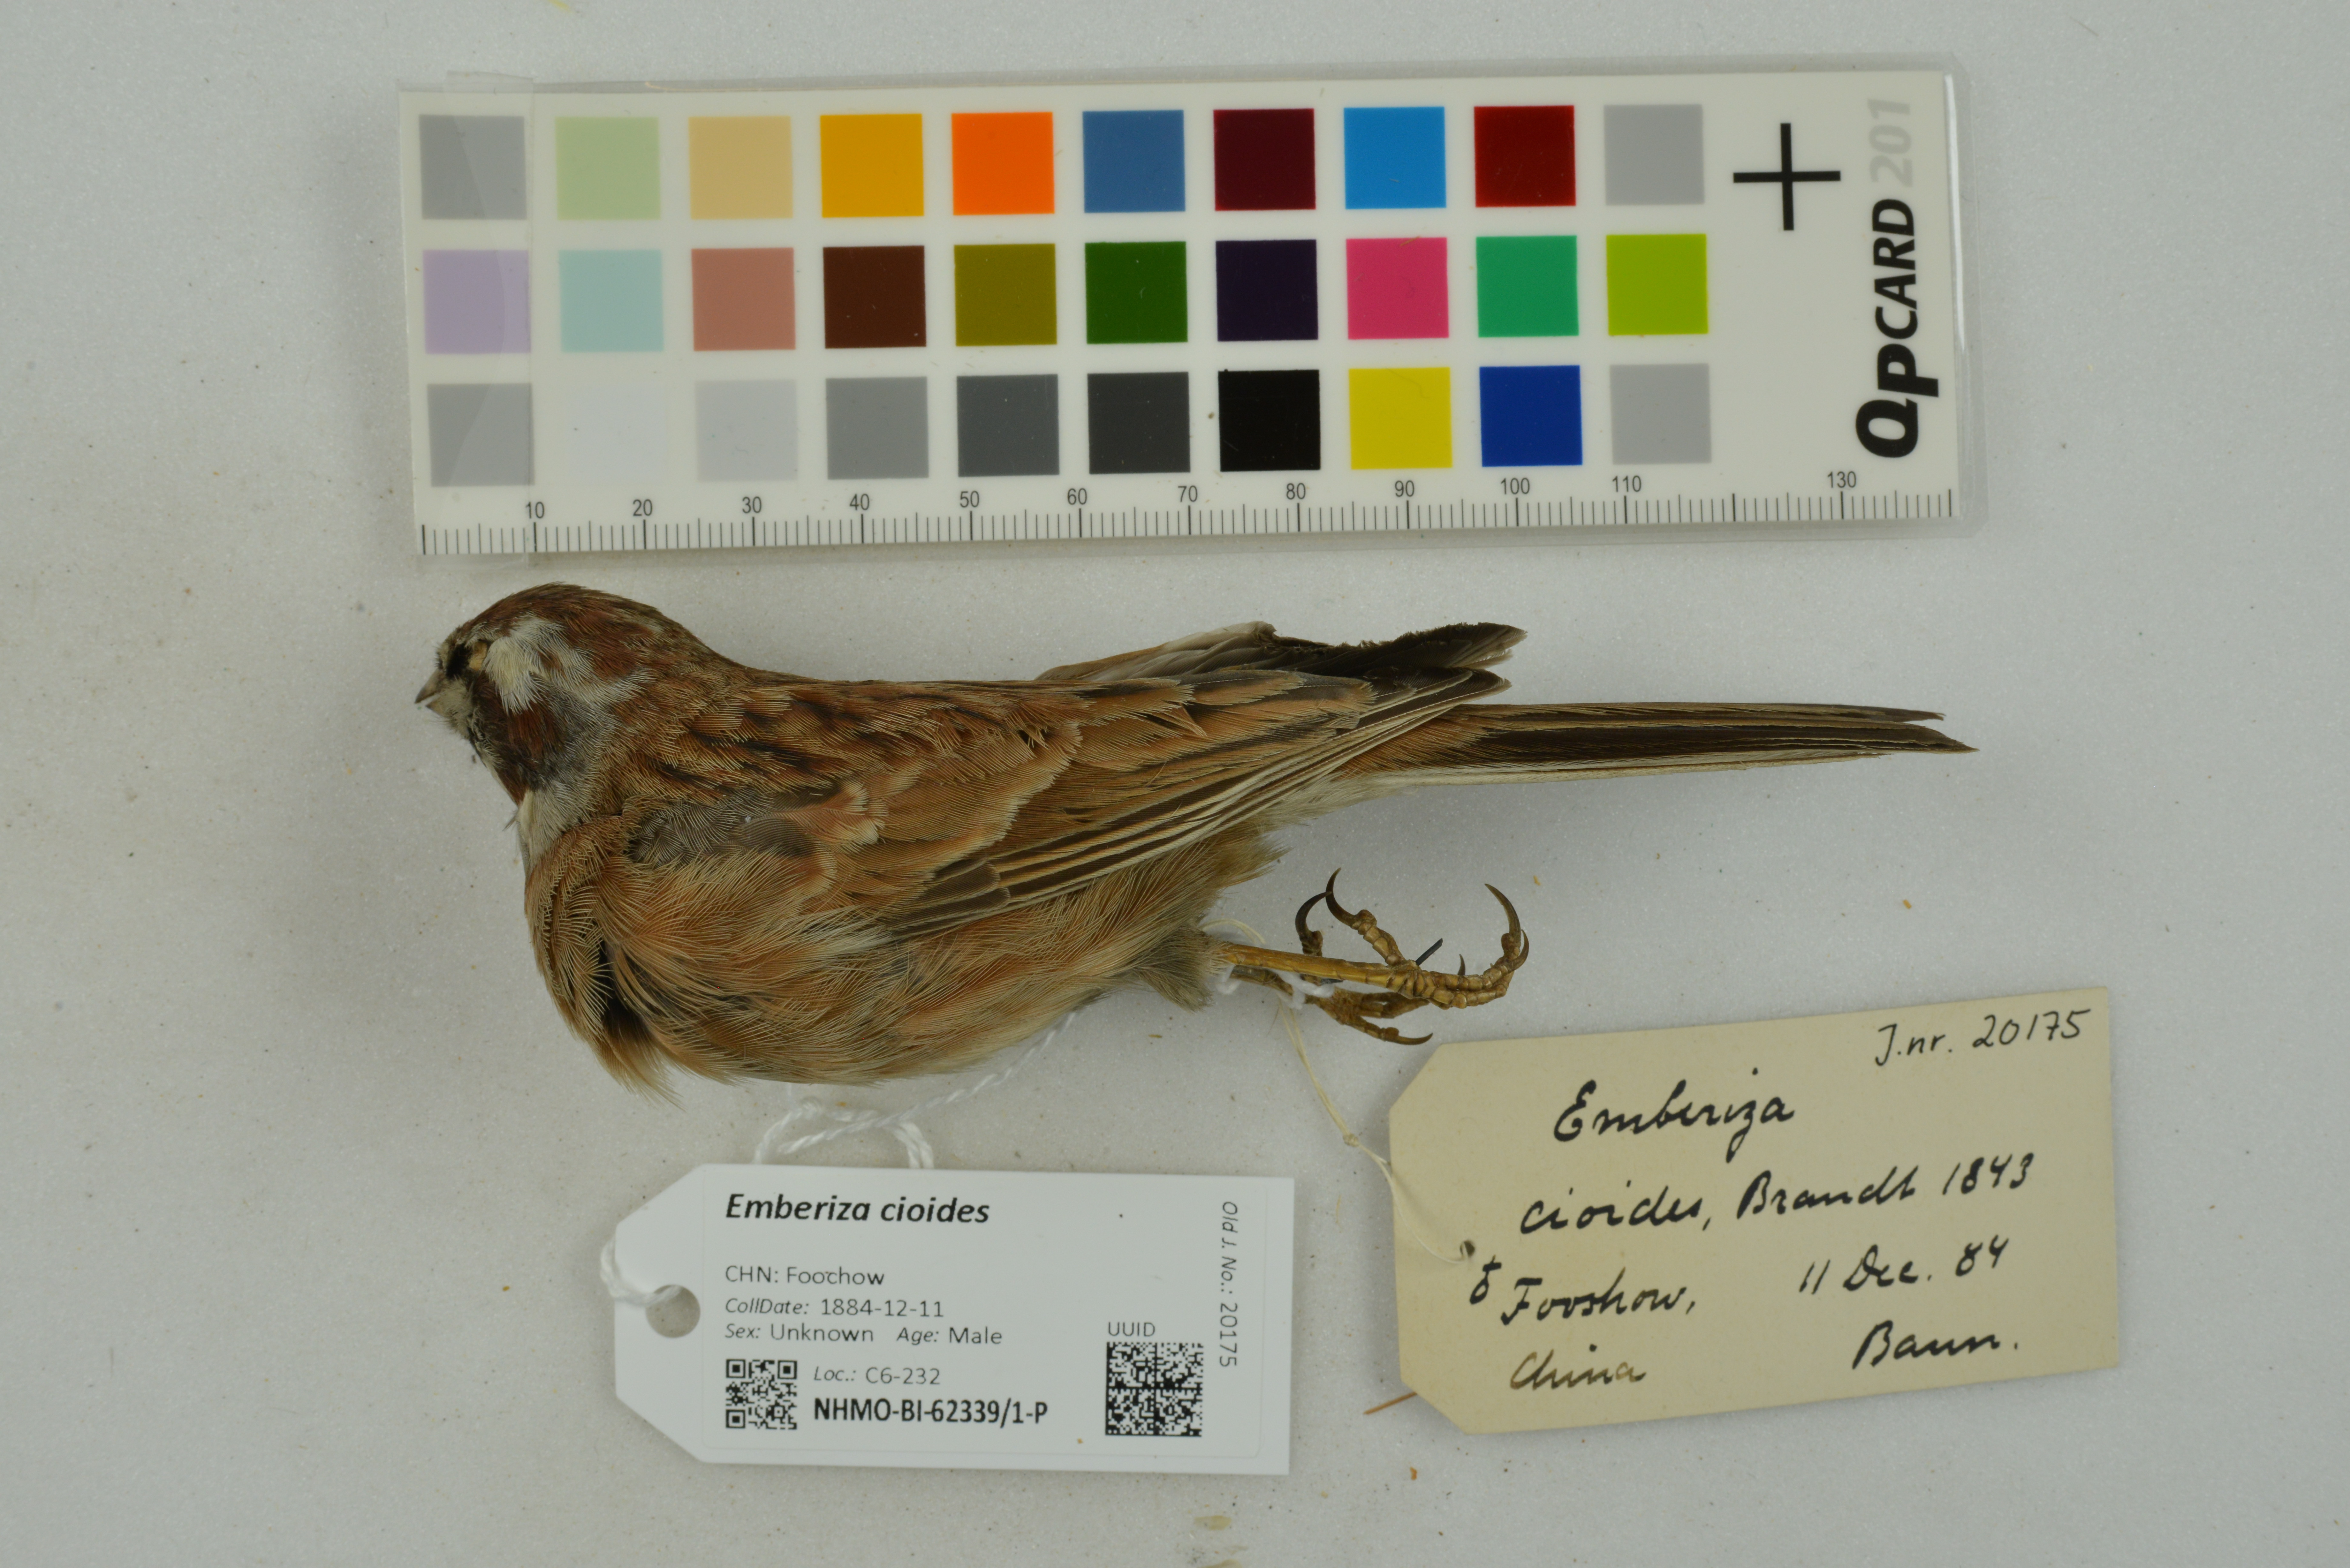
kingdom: Animalia
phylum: Chordata
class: Aves
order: Passeriformes
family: Emberizidae
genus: Emberiza
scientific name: Emberiza cioides
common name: Meadow bunting
